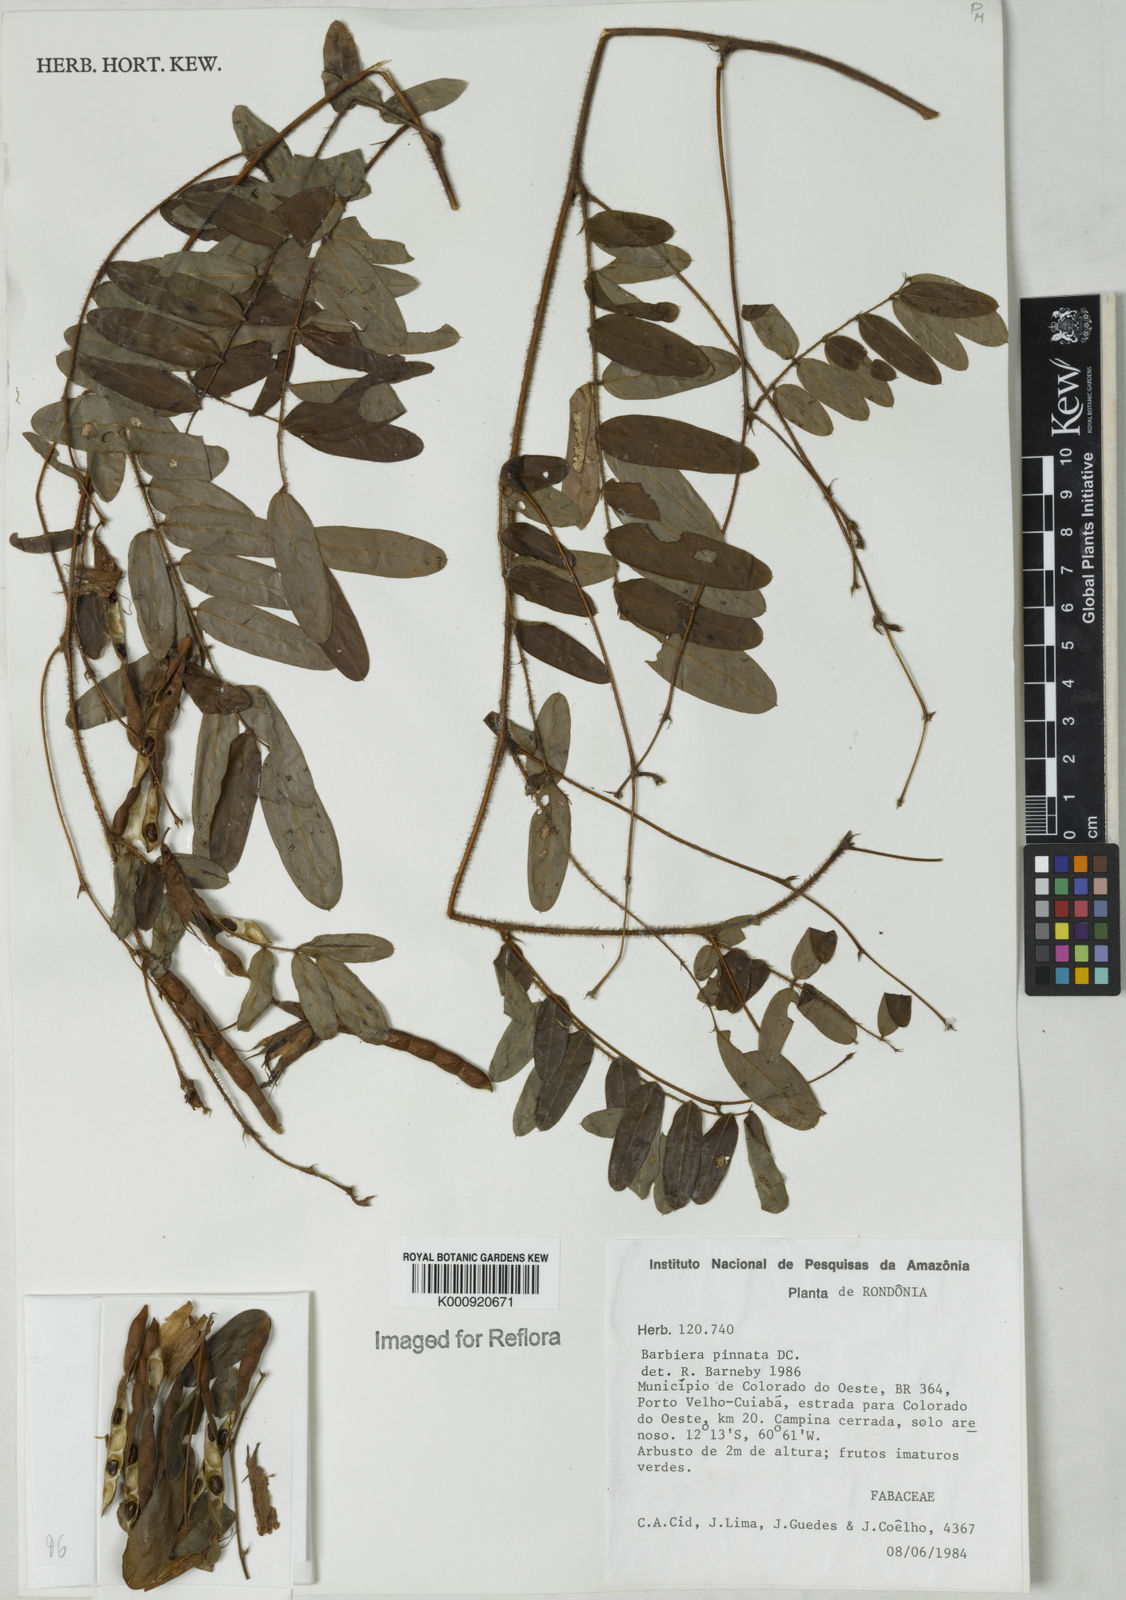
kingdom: Plantae
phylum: Tracheophyta
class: Magnoliopsida
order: Fabales
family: Fabaceae
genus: Barbieria
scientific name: Barbieria pinnata
